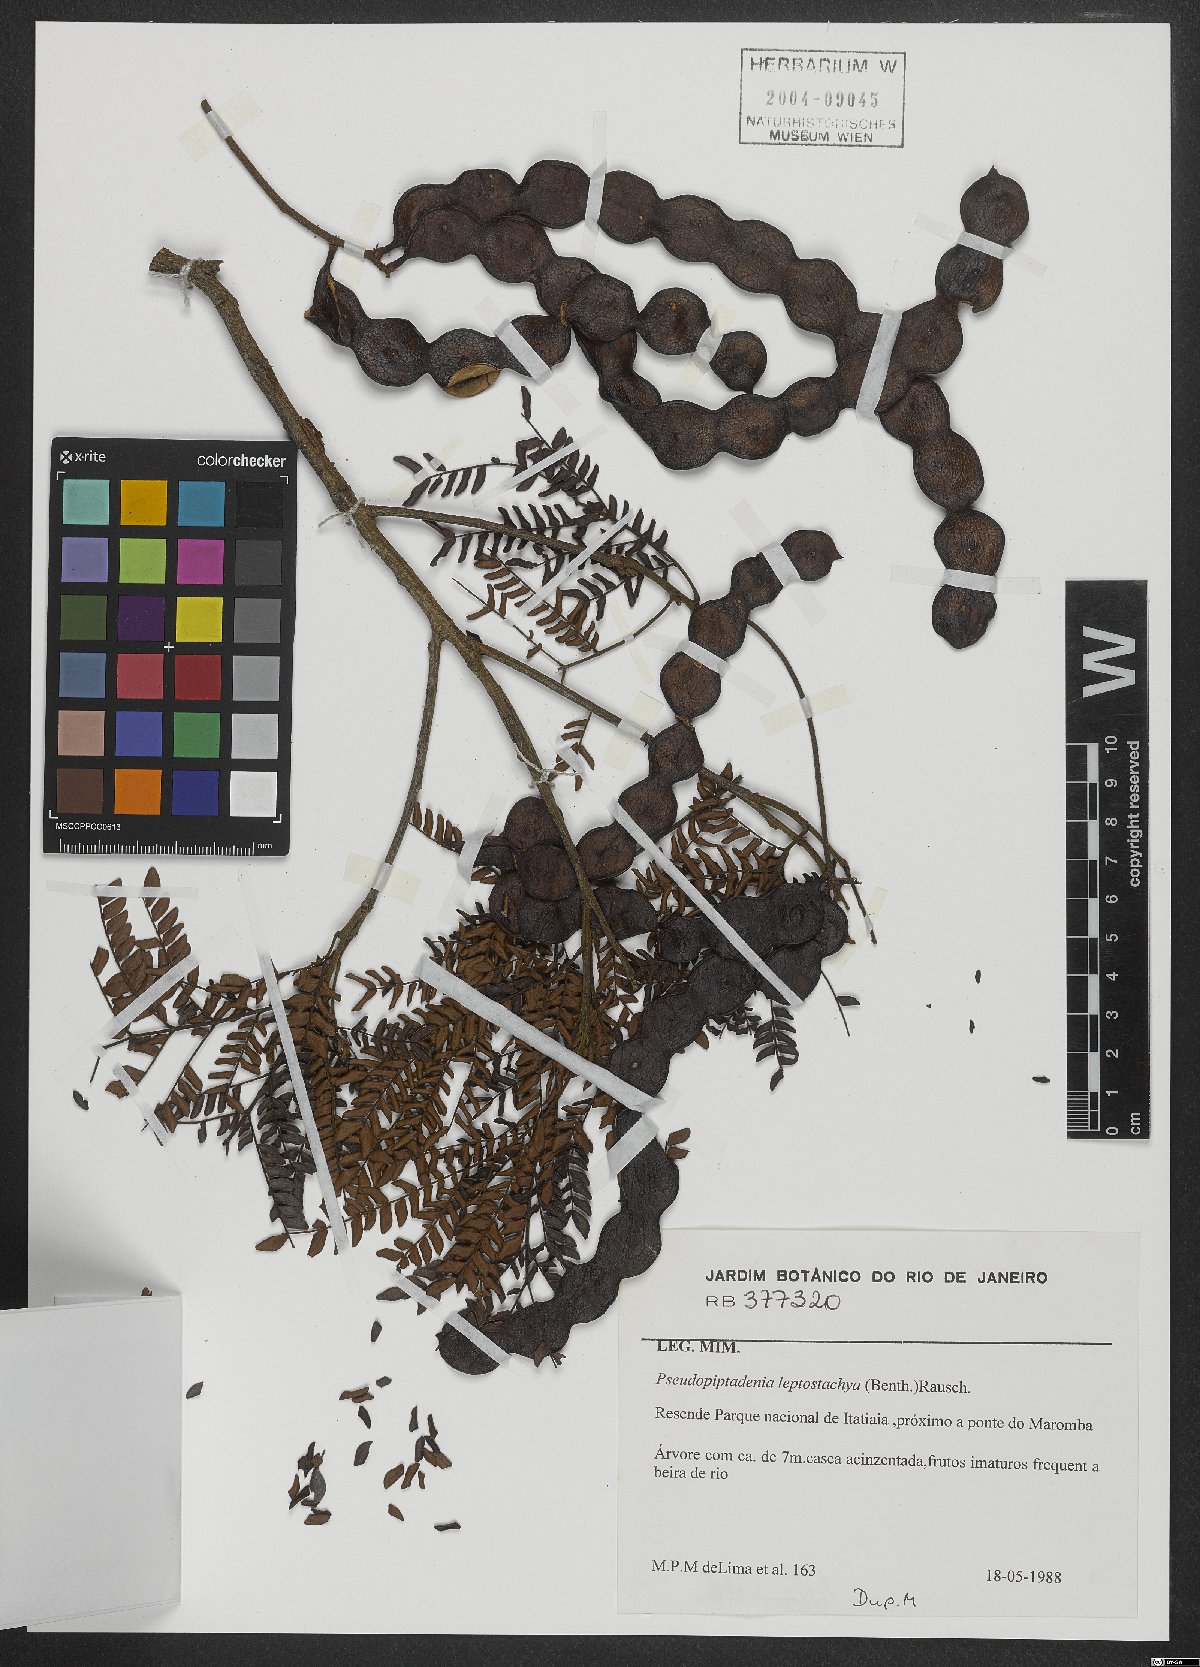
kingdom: Plantae
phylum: Tracheophyta
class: Magnoliopsida
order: Fabales
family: Fabaceae
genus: Pseudopiptadenia
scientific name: Pseudopiptadenia leptostachya
